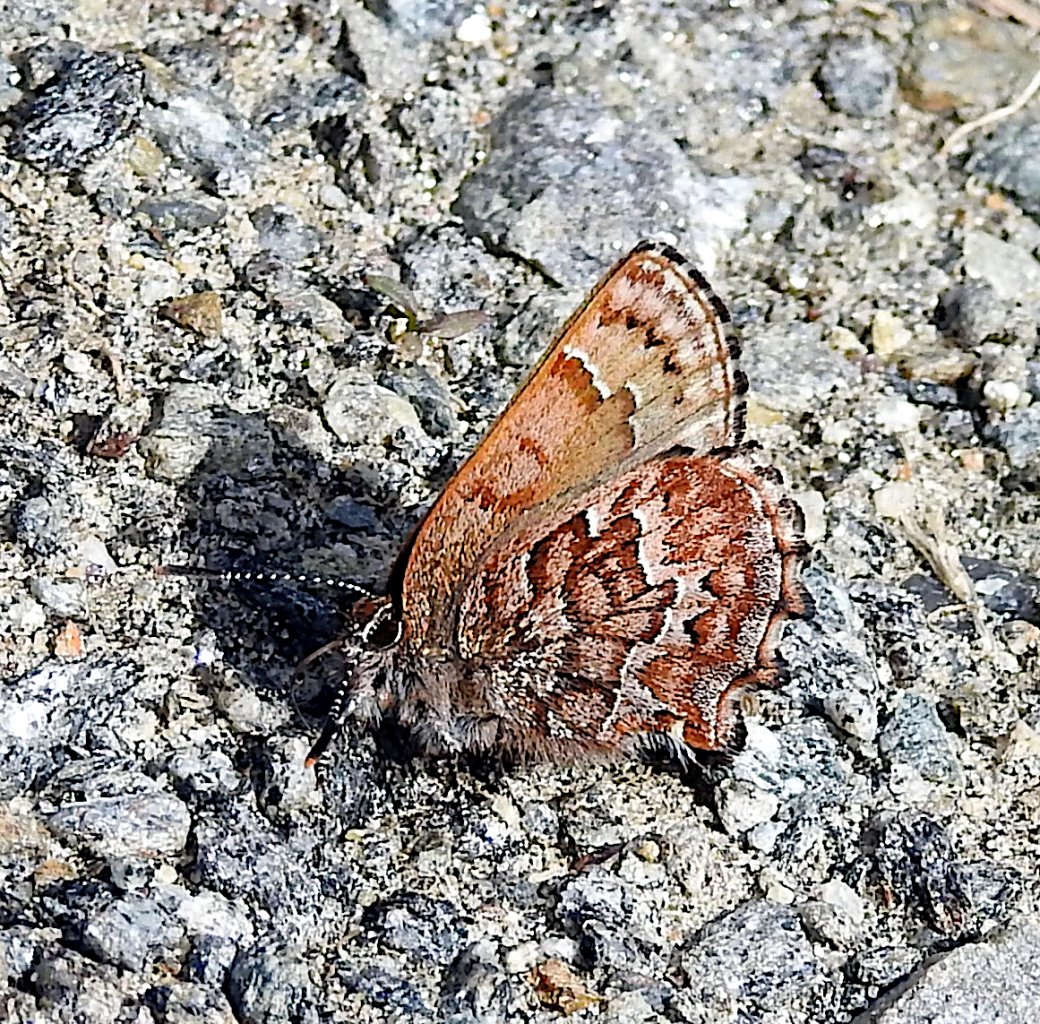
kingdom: Animalia
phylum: Arthropoda
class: Insecta
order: Lepidoptera
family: Lycaenidae
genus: Incisalia
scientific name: Incisalia niphon
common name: Eastern Pine Elfin
